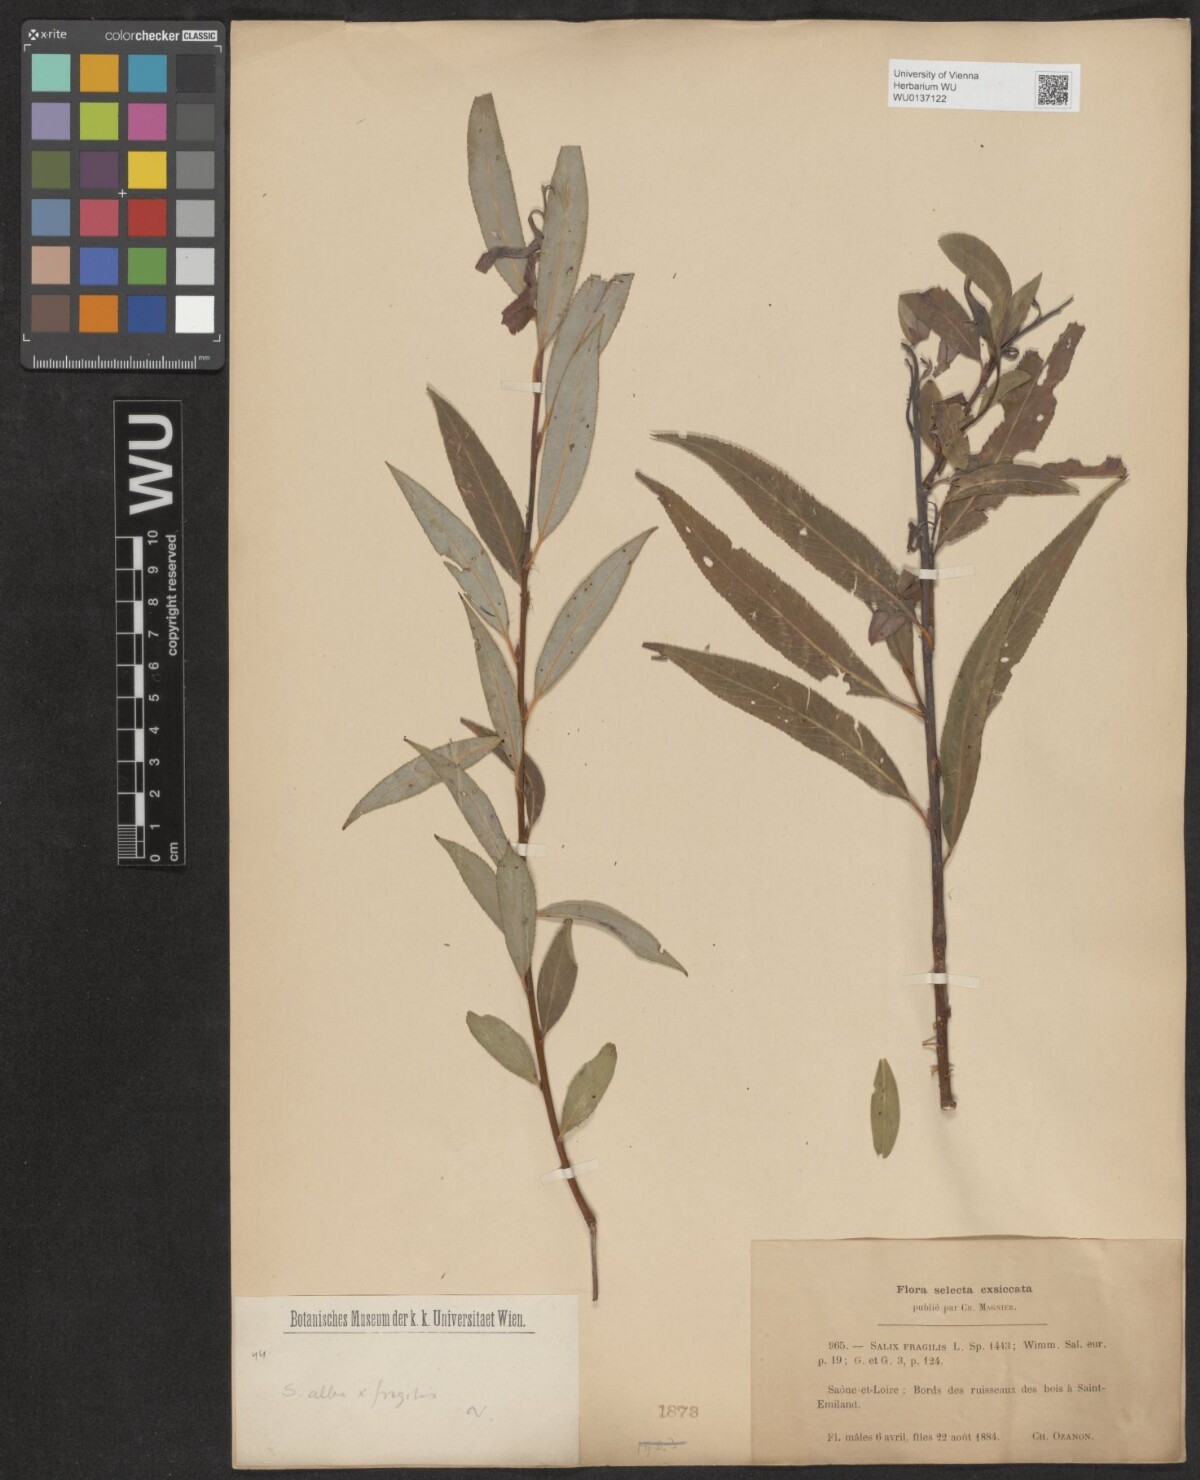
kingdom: Plantae
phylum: Tracheophyta
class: Magnoliopsida
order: Malpighiales
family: Salicaceae
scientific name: Salicaceae
